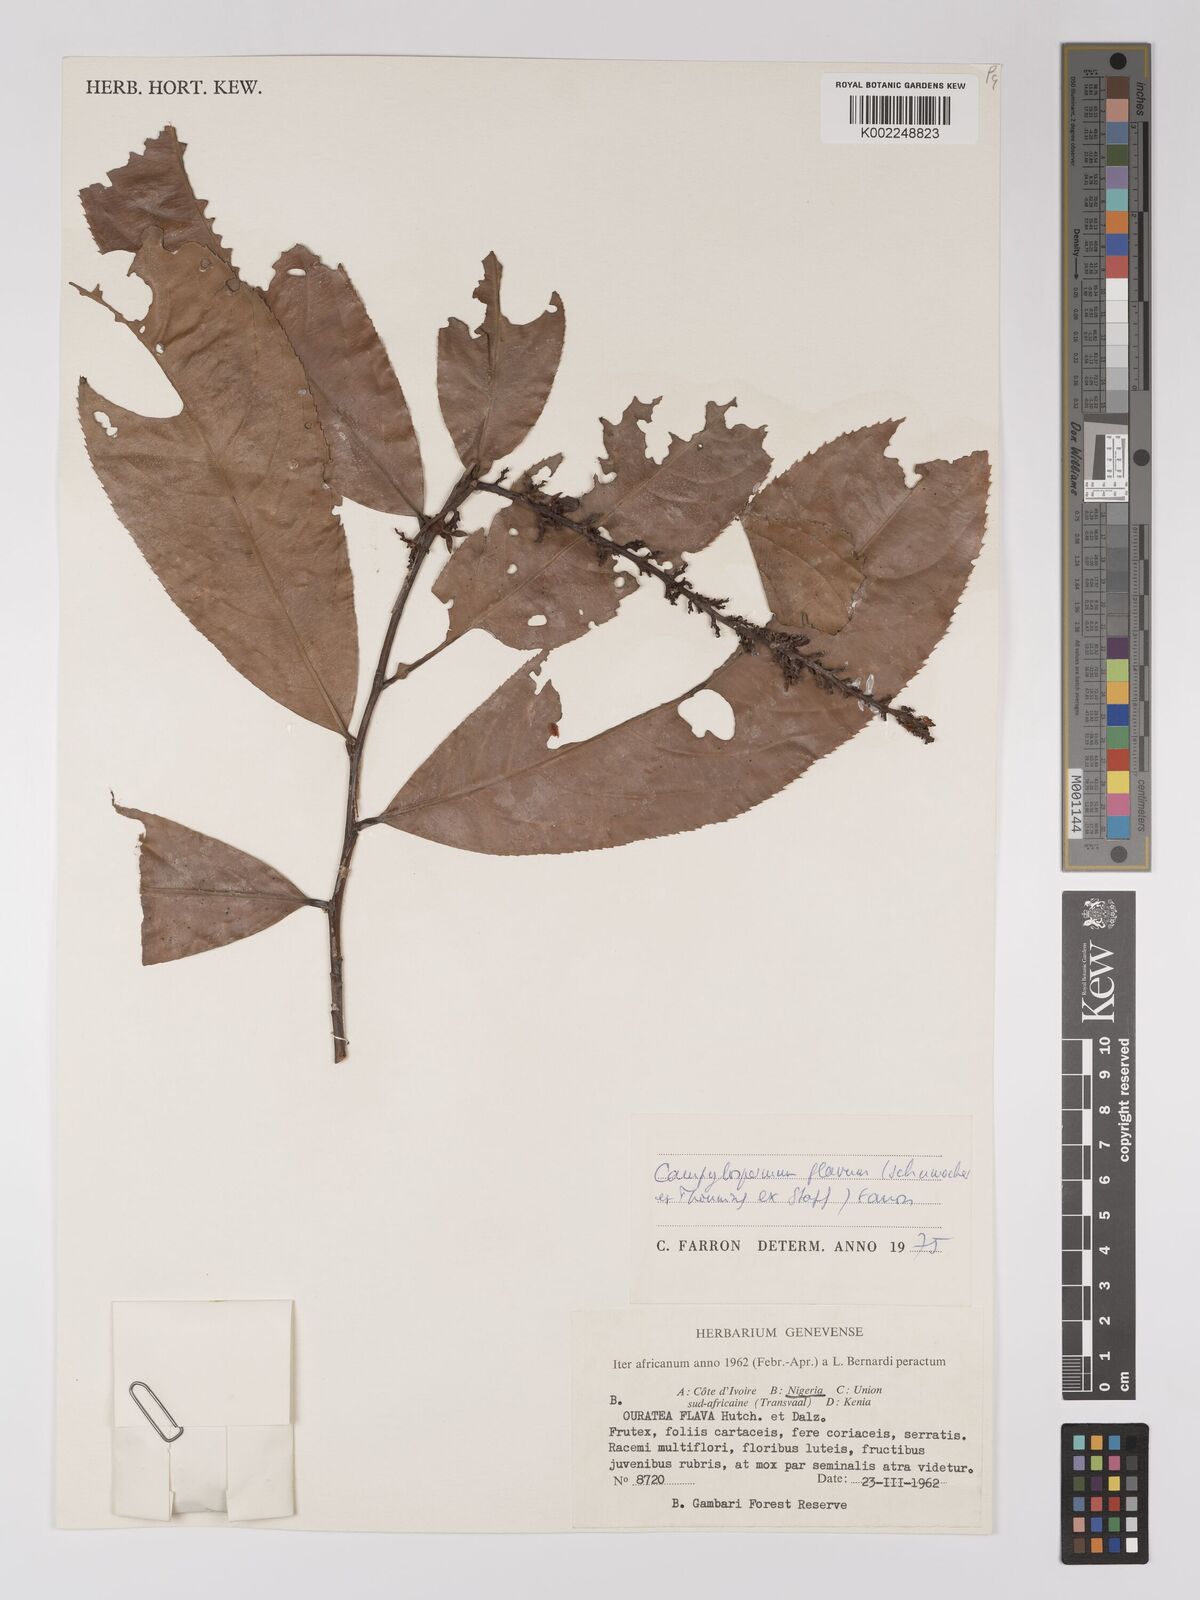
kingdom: Plantae
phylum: Tracheophyta
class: Magnoliopsida
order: Malpighiales
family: Ochnaceae
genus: Campylospermum
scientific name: Campylospermum flavum
